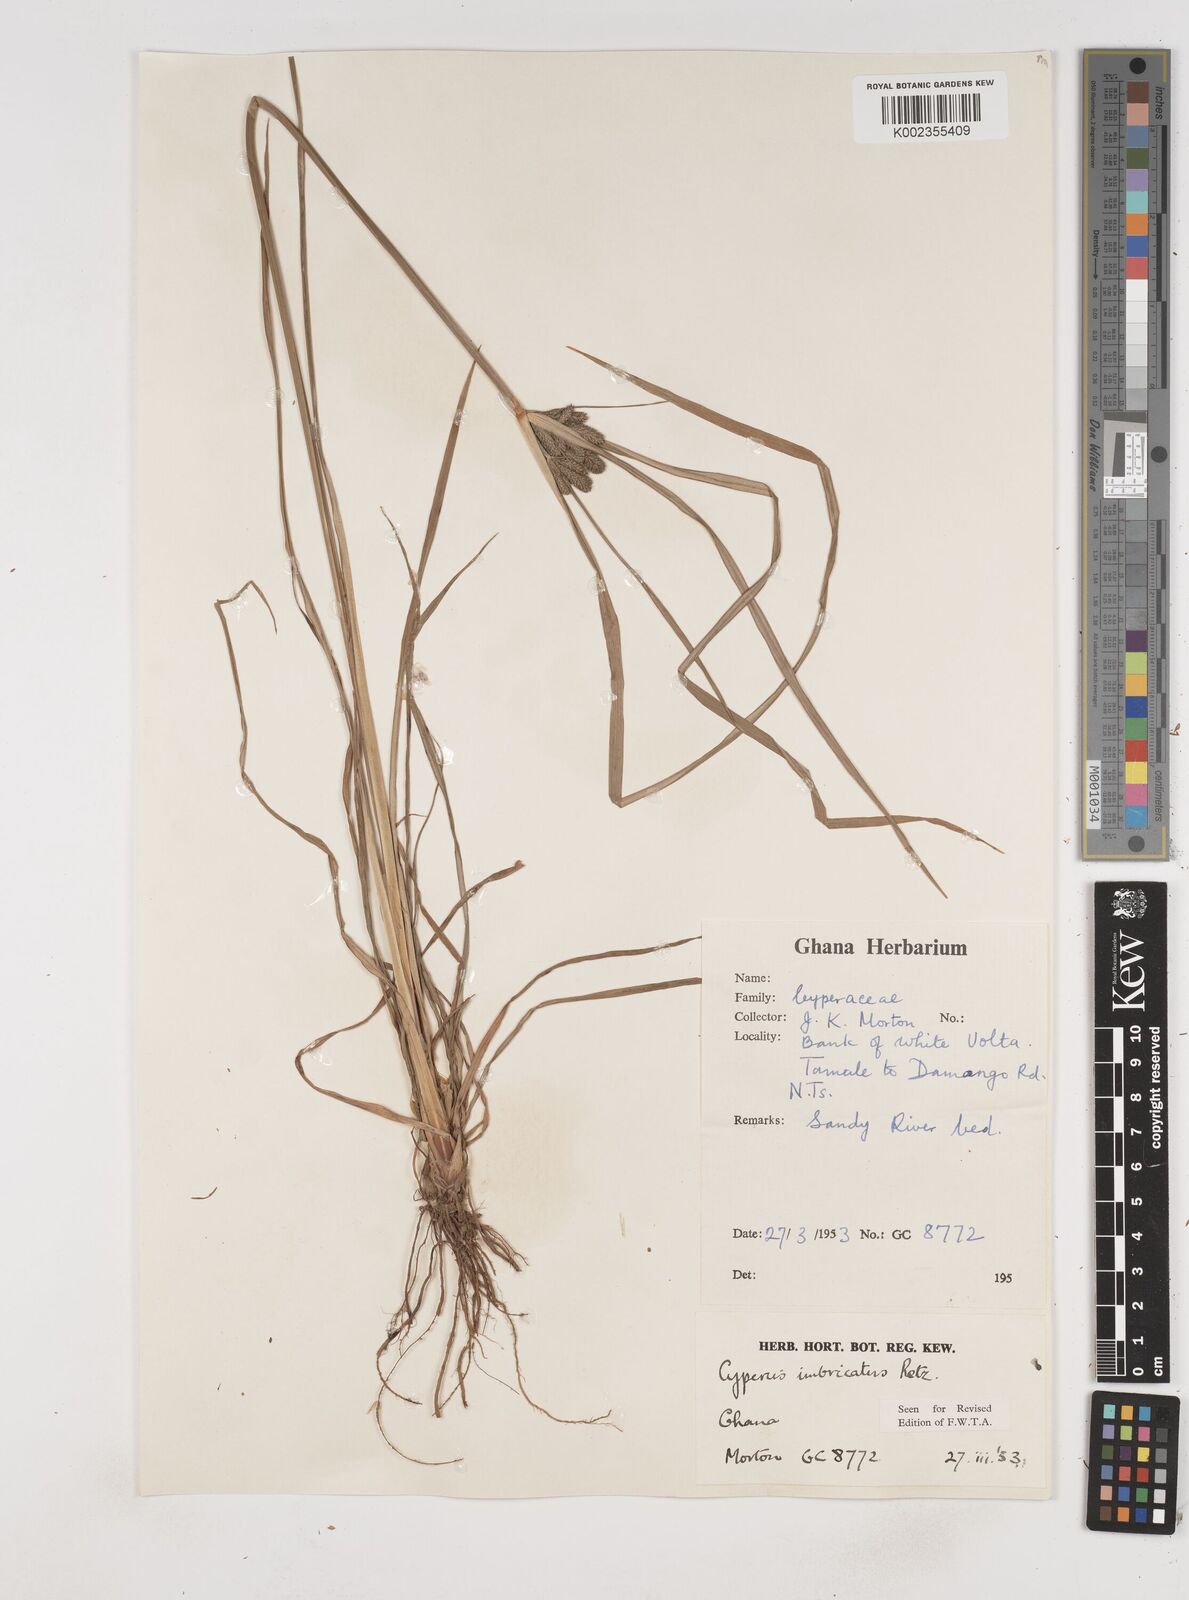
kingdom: Plantae
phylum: Tracheophyta
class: Liliopsida
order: Poales
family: Cyperaceae
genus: Cyperus
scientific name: Cyperus imbricatus
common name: Shingle flatsedge
